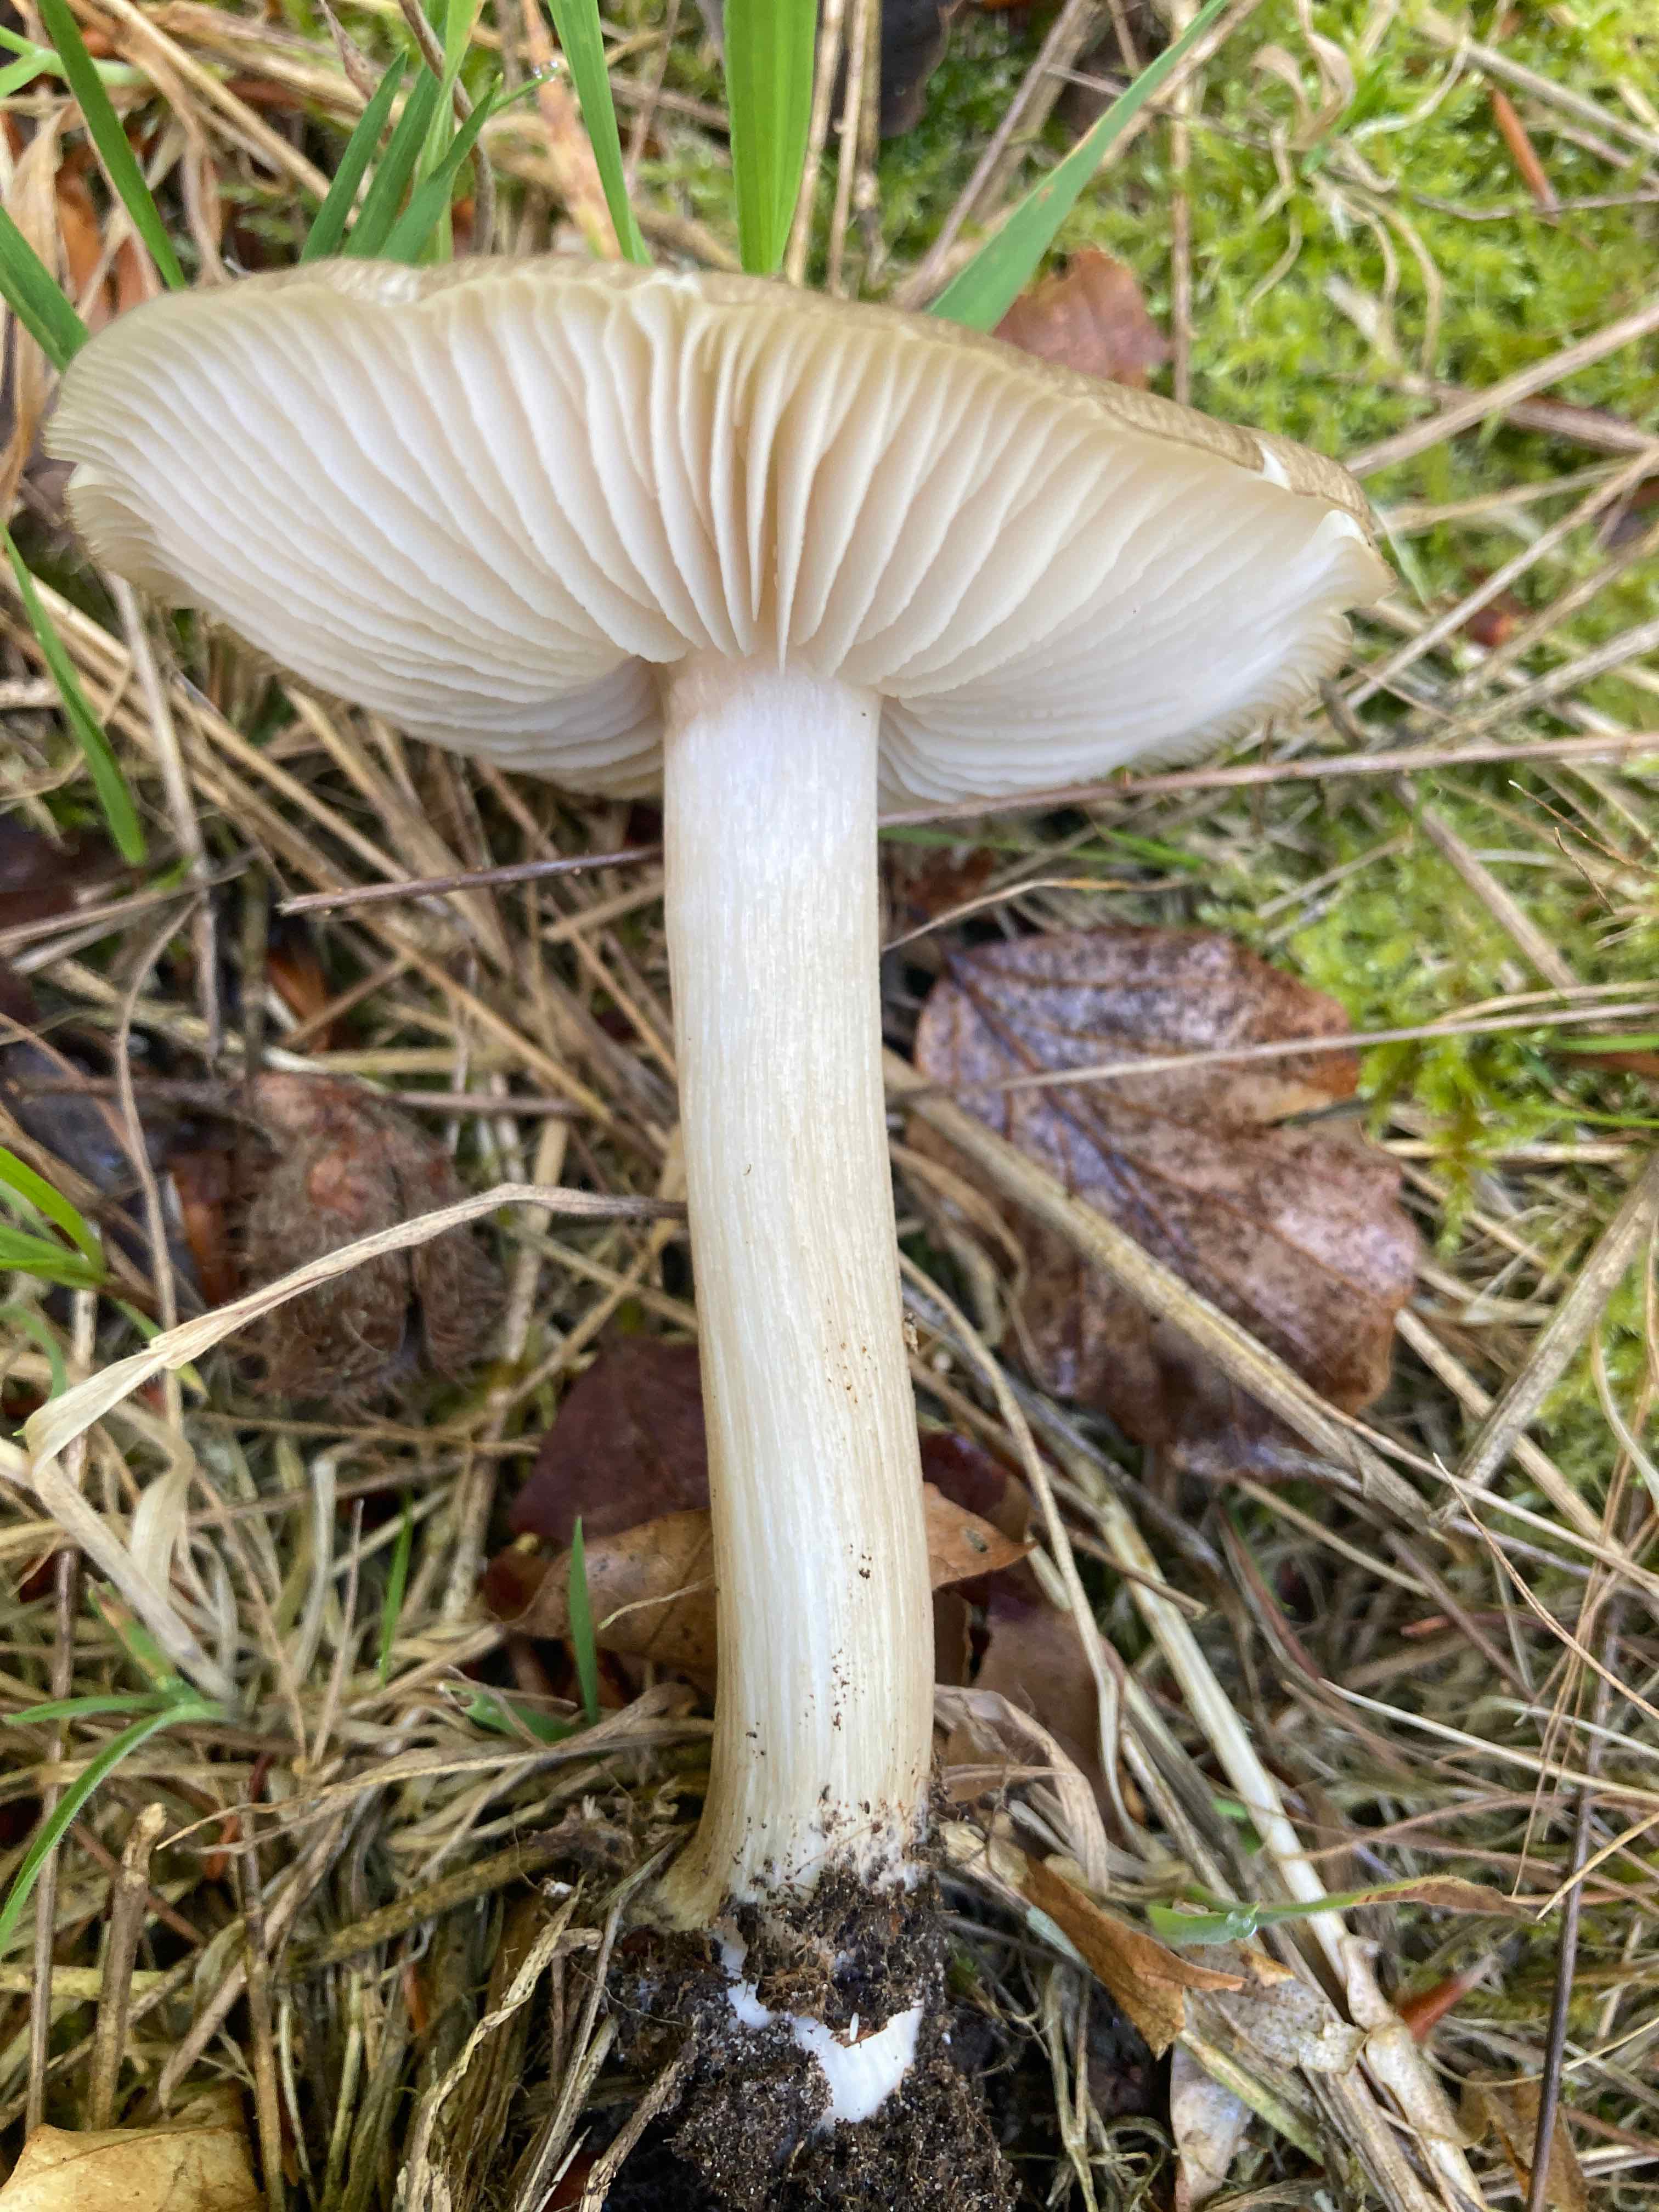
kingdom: Fungi
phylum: Basidiomycota
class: Agaricomycetes
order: Agaricales
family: Tricholomataceae
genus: Megacollybia
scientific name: Megacollybia platyphylla
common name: bredbladet væbnerhat
